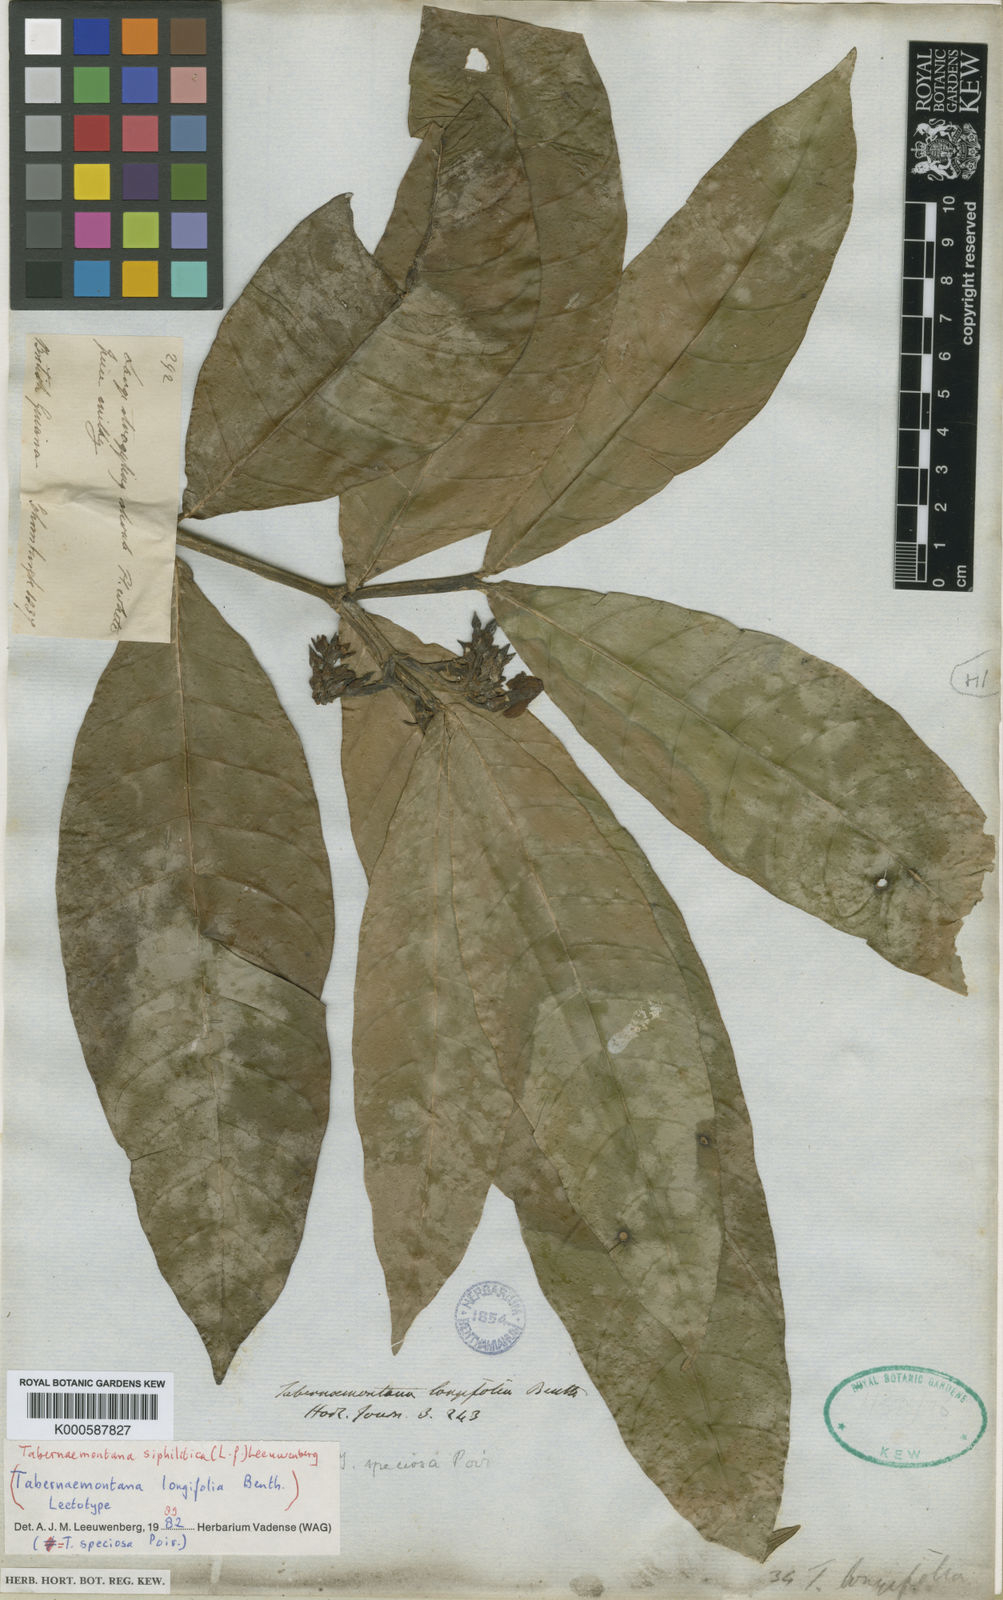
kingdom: Plantae
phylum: Tracheophyta
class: Magnoliopsida
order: Gentianales
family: Apocynaceae
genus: Tabernaemontana
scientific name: Tabernaemontana siphilitica
